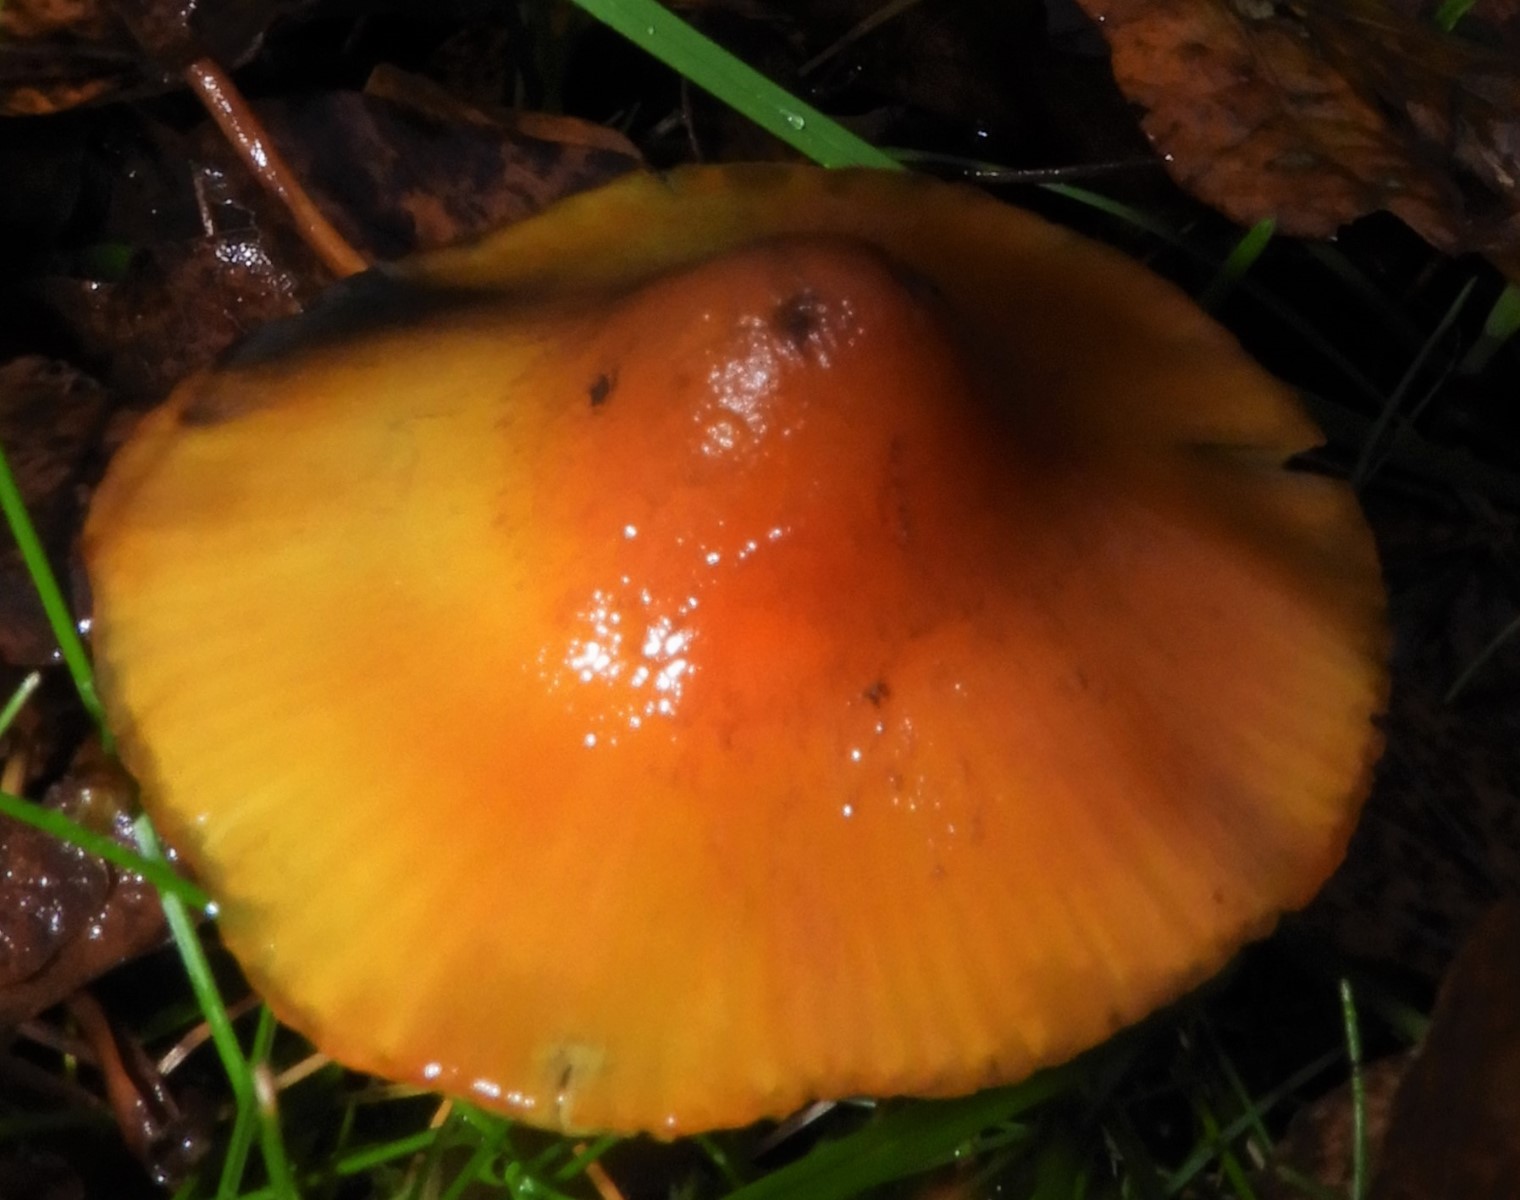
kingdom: Fungi
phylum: Basidiomycota
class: Agaricomycetes
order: Agaricales
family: Hygrophoraceae
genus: Hygrocybe
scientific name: Hygrocybe conica
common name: kegle-vokshat
